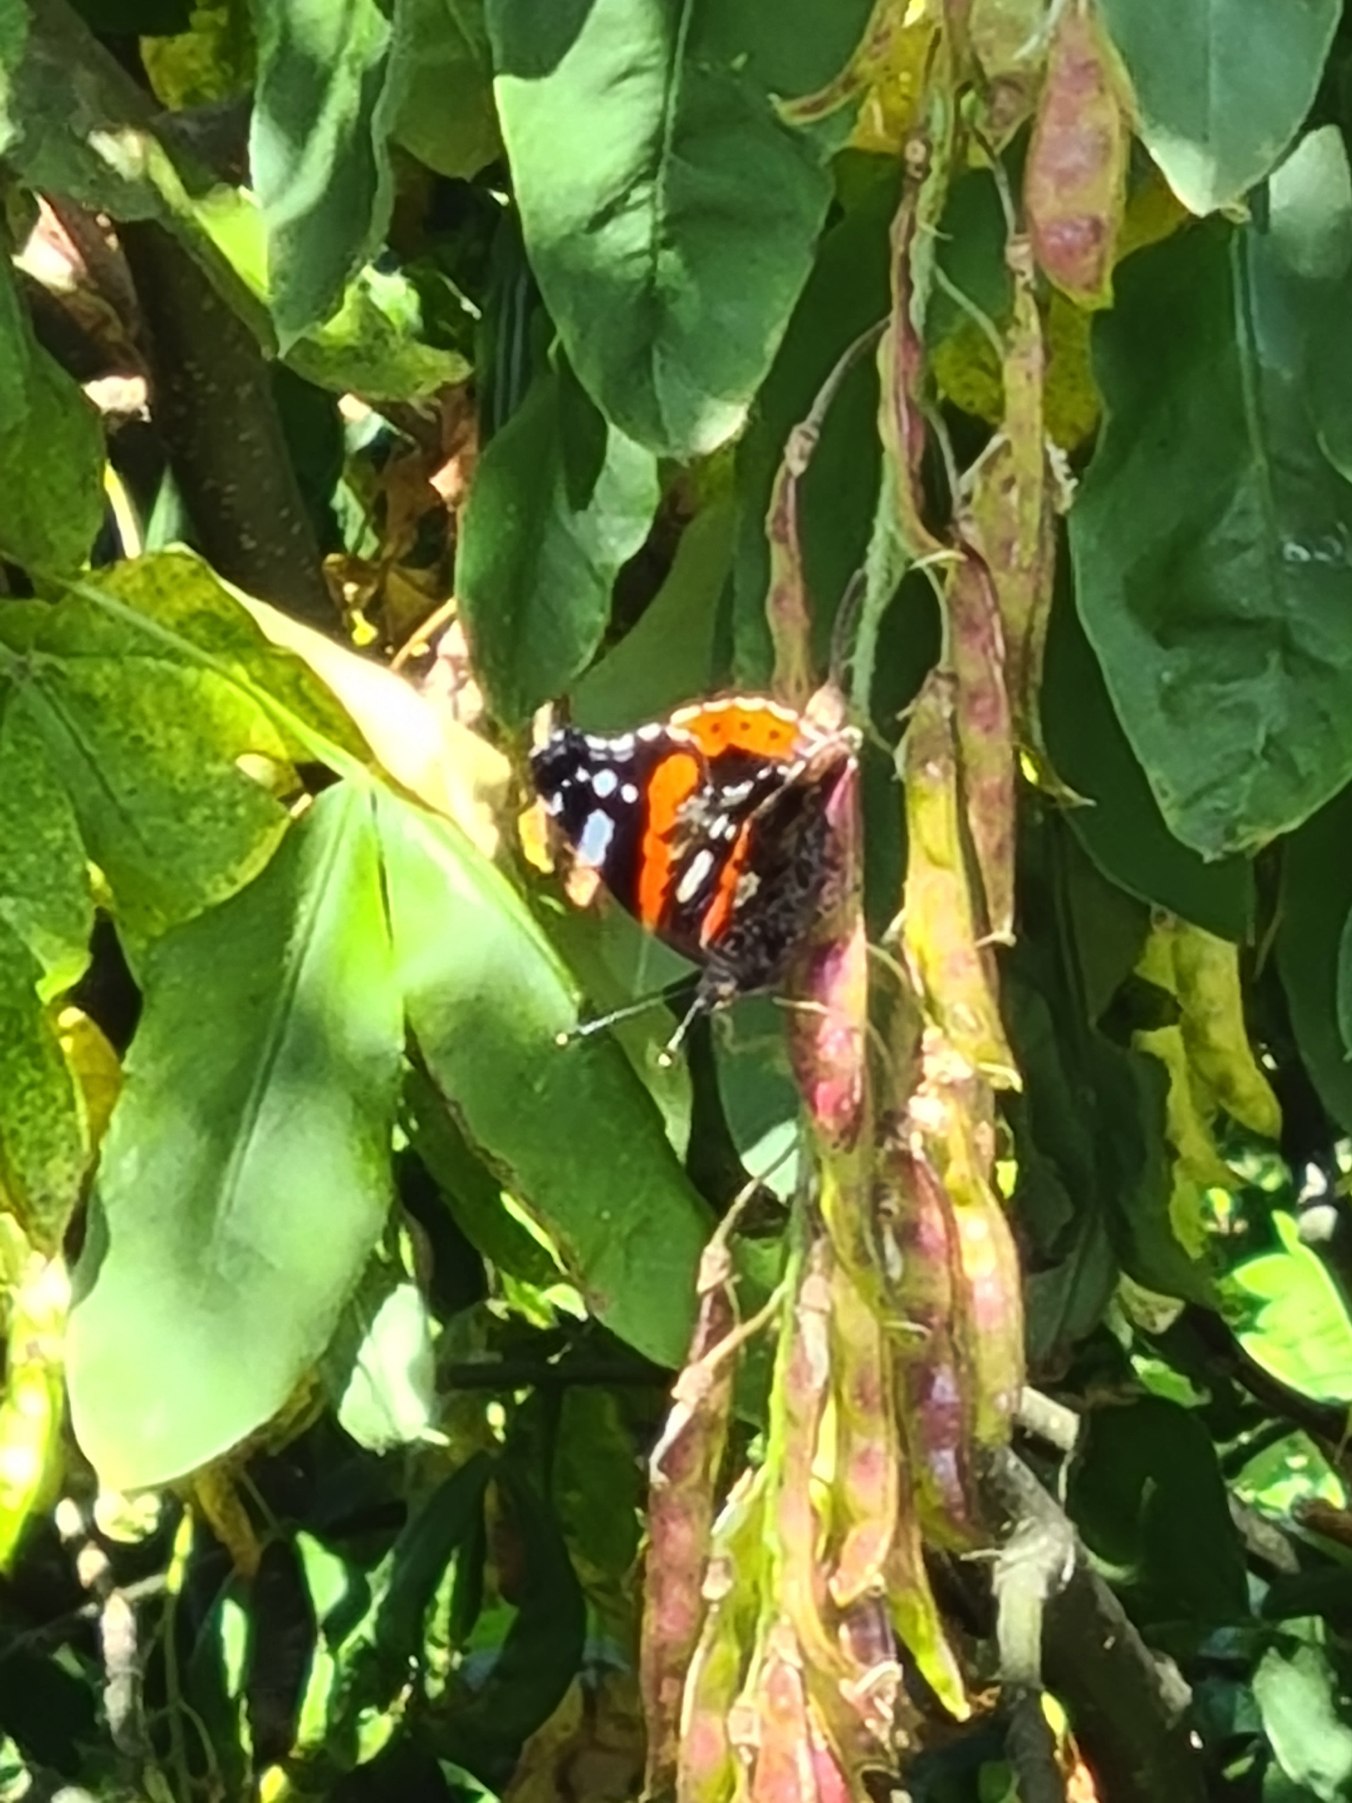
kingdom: Animalia
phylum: Arthropoda
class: Insecta
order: Lepidoptera
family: Nymphalidae
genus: Vanessa
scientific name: Vanessa atalanta
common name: Admiral
